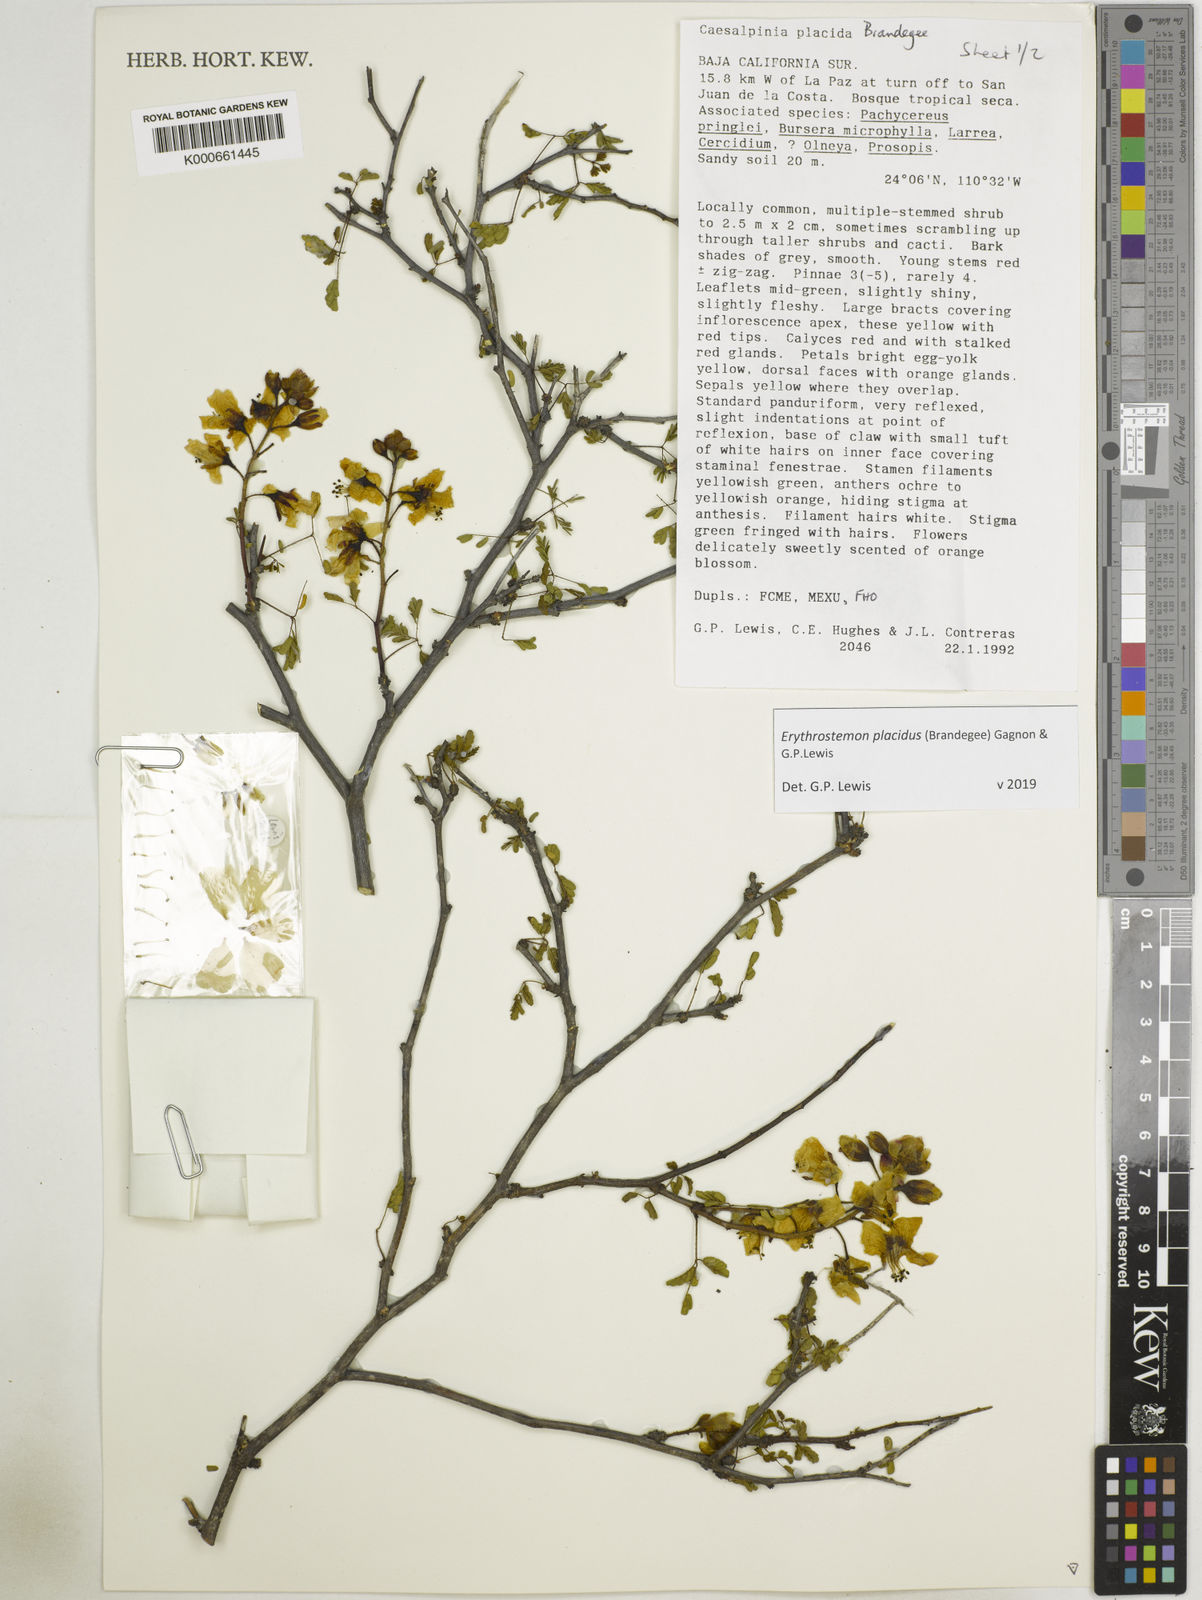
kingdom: Plantae
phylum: Tracheophyta
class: Magnoliopsida
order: Fabales
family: Fabaceae
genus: Erythrostemon
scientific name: Erythrostemon placidus
